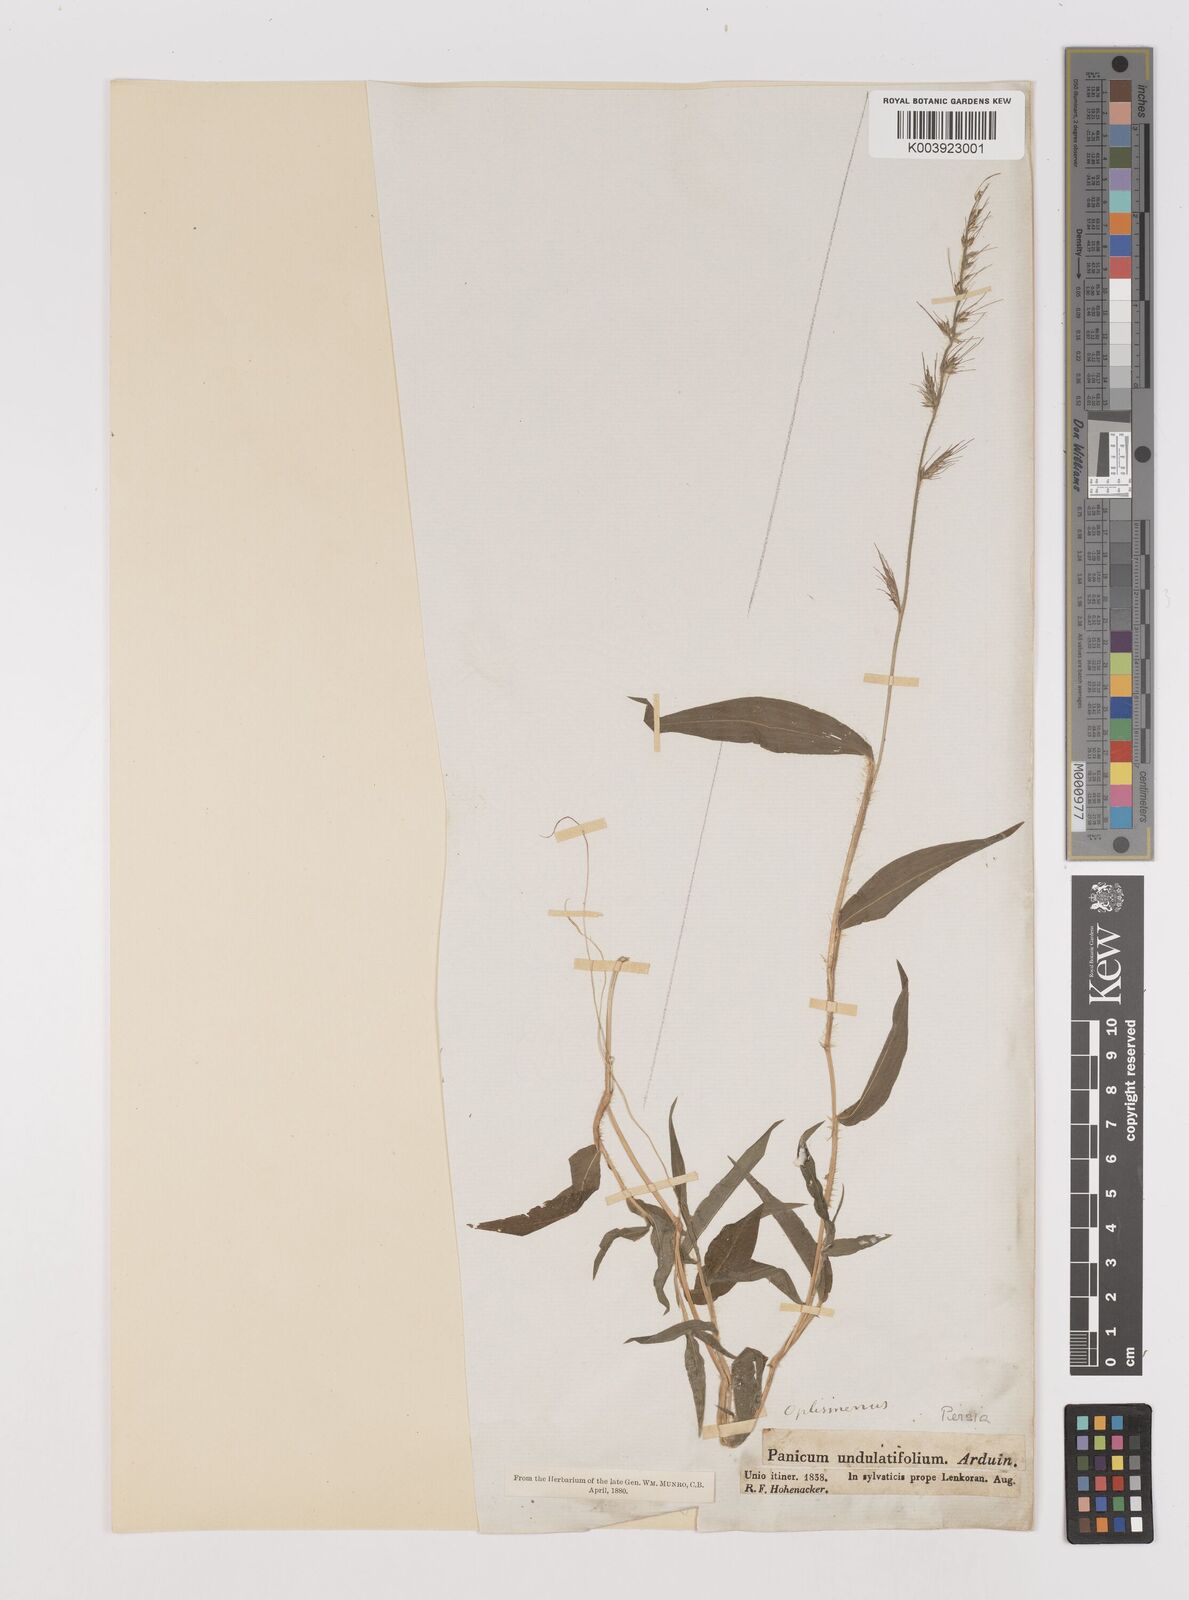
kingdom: Plantae
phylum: Tracheophyta
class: Liliopsida
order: Poales
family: Poaceae
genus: Oplismenus
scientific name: Oplismenus undulatifolius
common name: Wavyleaf basketgrass
